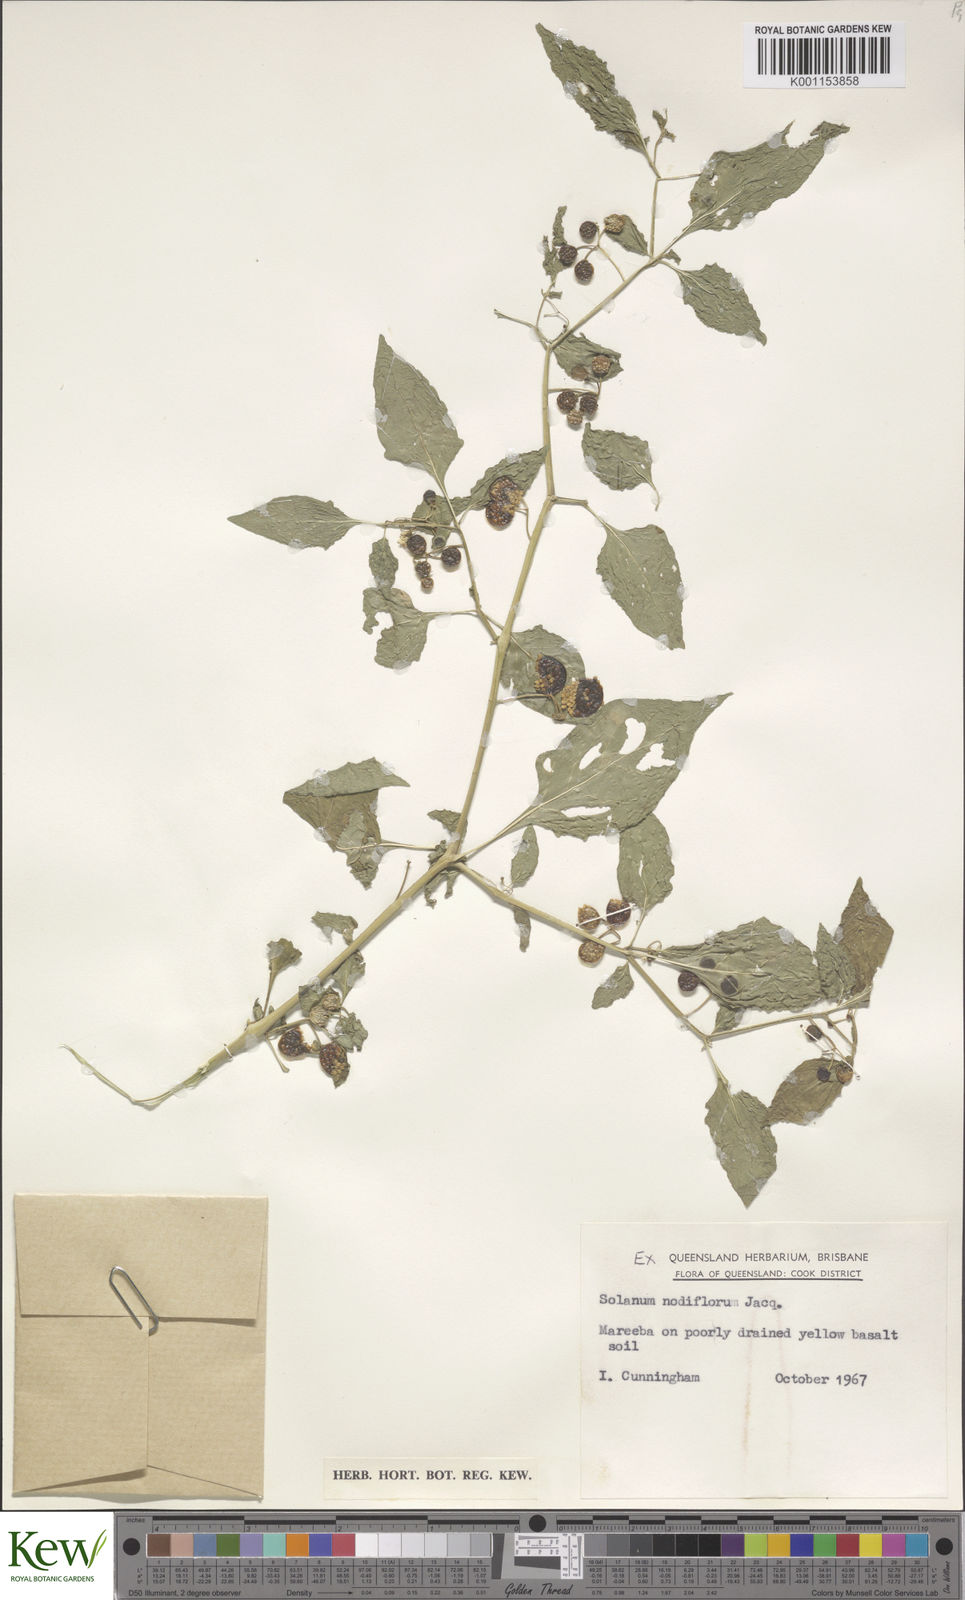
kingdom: Plantae
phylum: Tracheophyta
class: Magnoliopsida
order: Solanales
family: Solanaceae
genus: Solanum
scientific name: Solanum americanum
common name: American black nightshade
